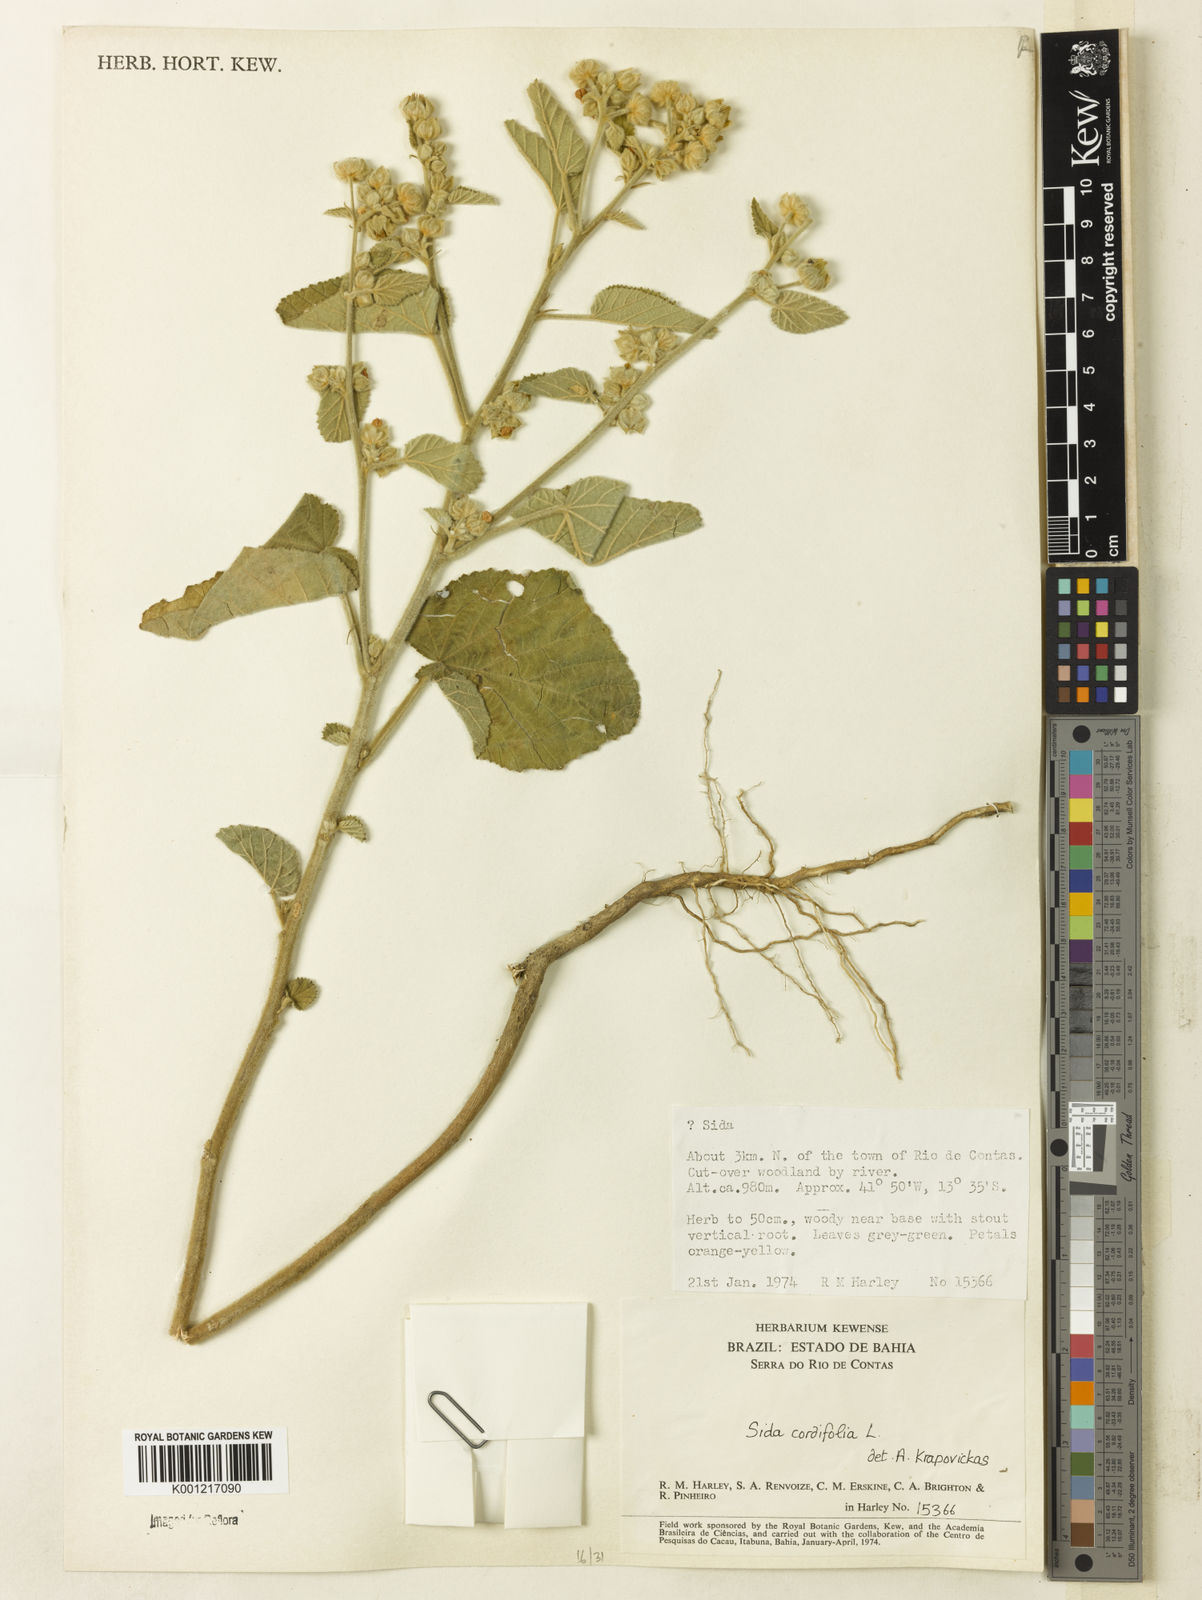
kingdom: Plantae
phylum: Tracheophyta
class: Magnoliopsida
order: Malvales
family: Malvaceae
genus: Sida
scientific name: Sida cordifolia
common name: Ilima
